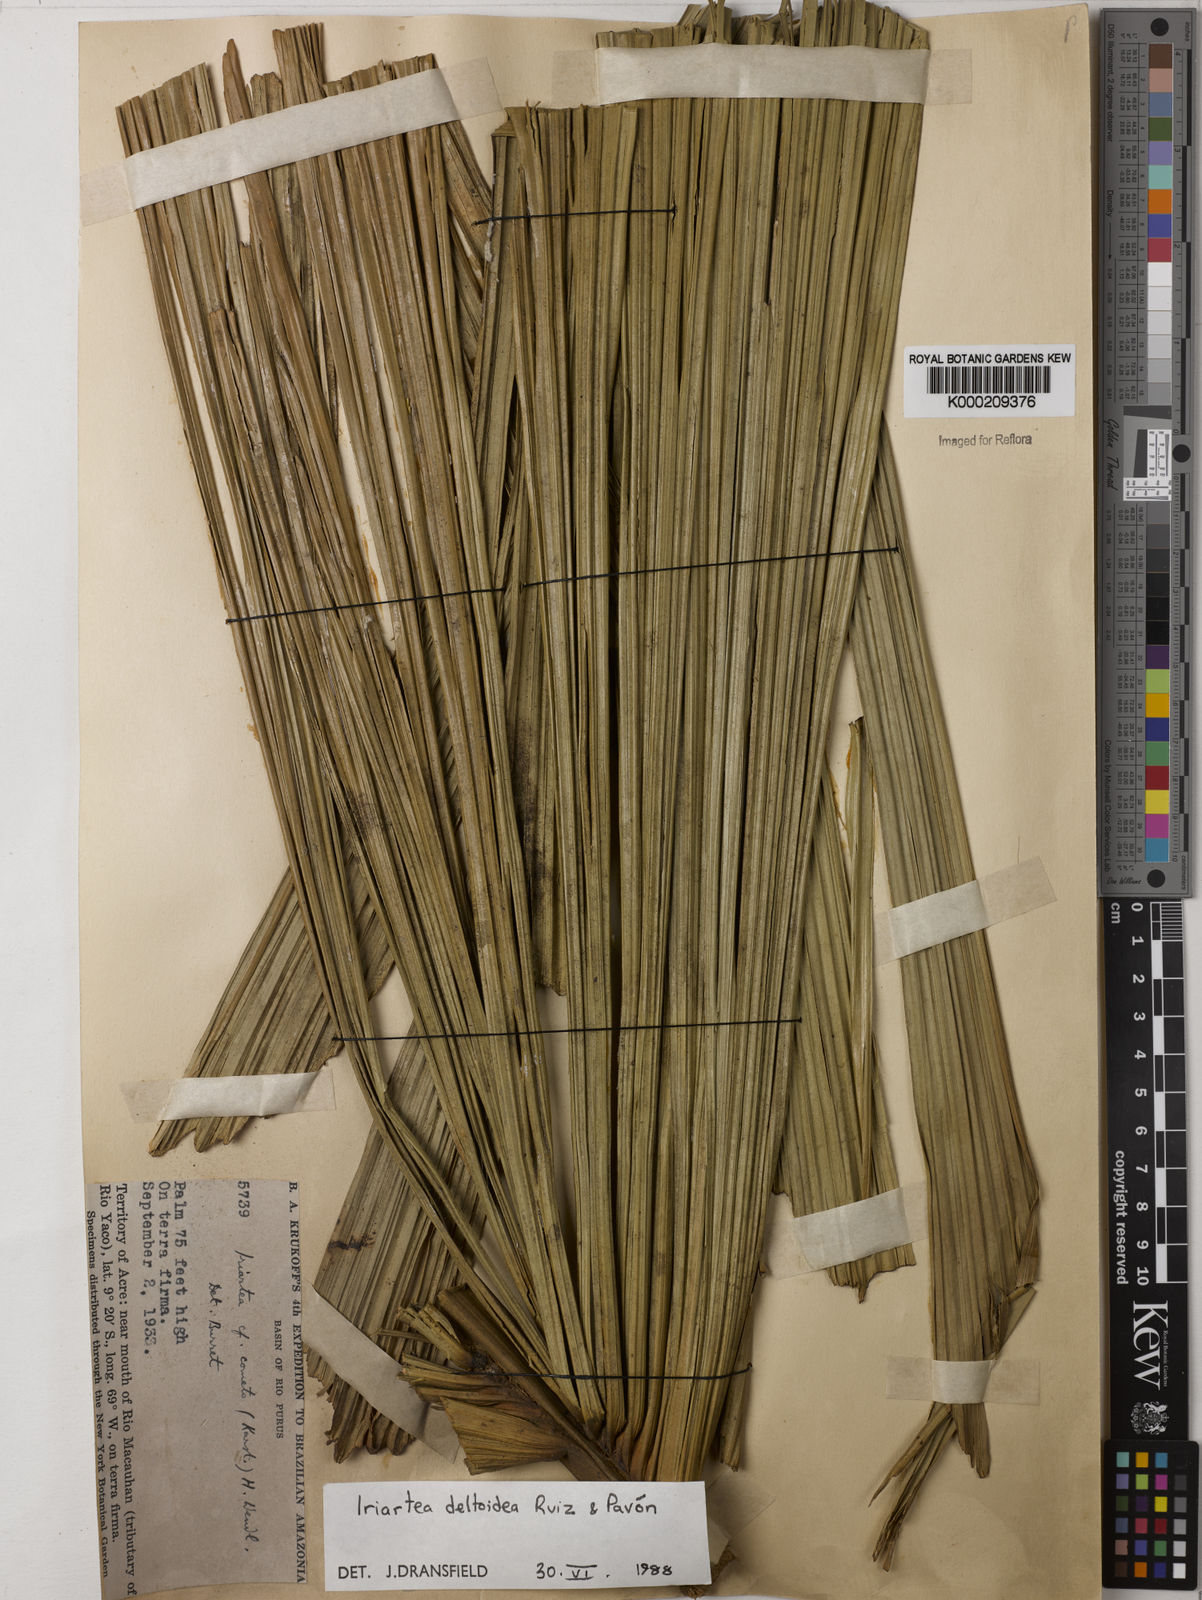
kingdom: Plantae
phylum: Tracheophyta
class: Liliopsida
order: Arecales
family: Arecaceae
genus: Iriartea
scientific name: Iriartea deltoidea
